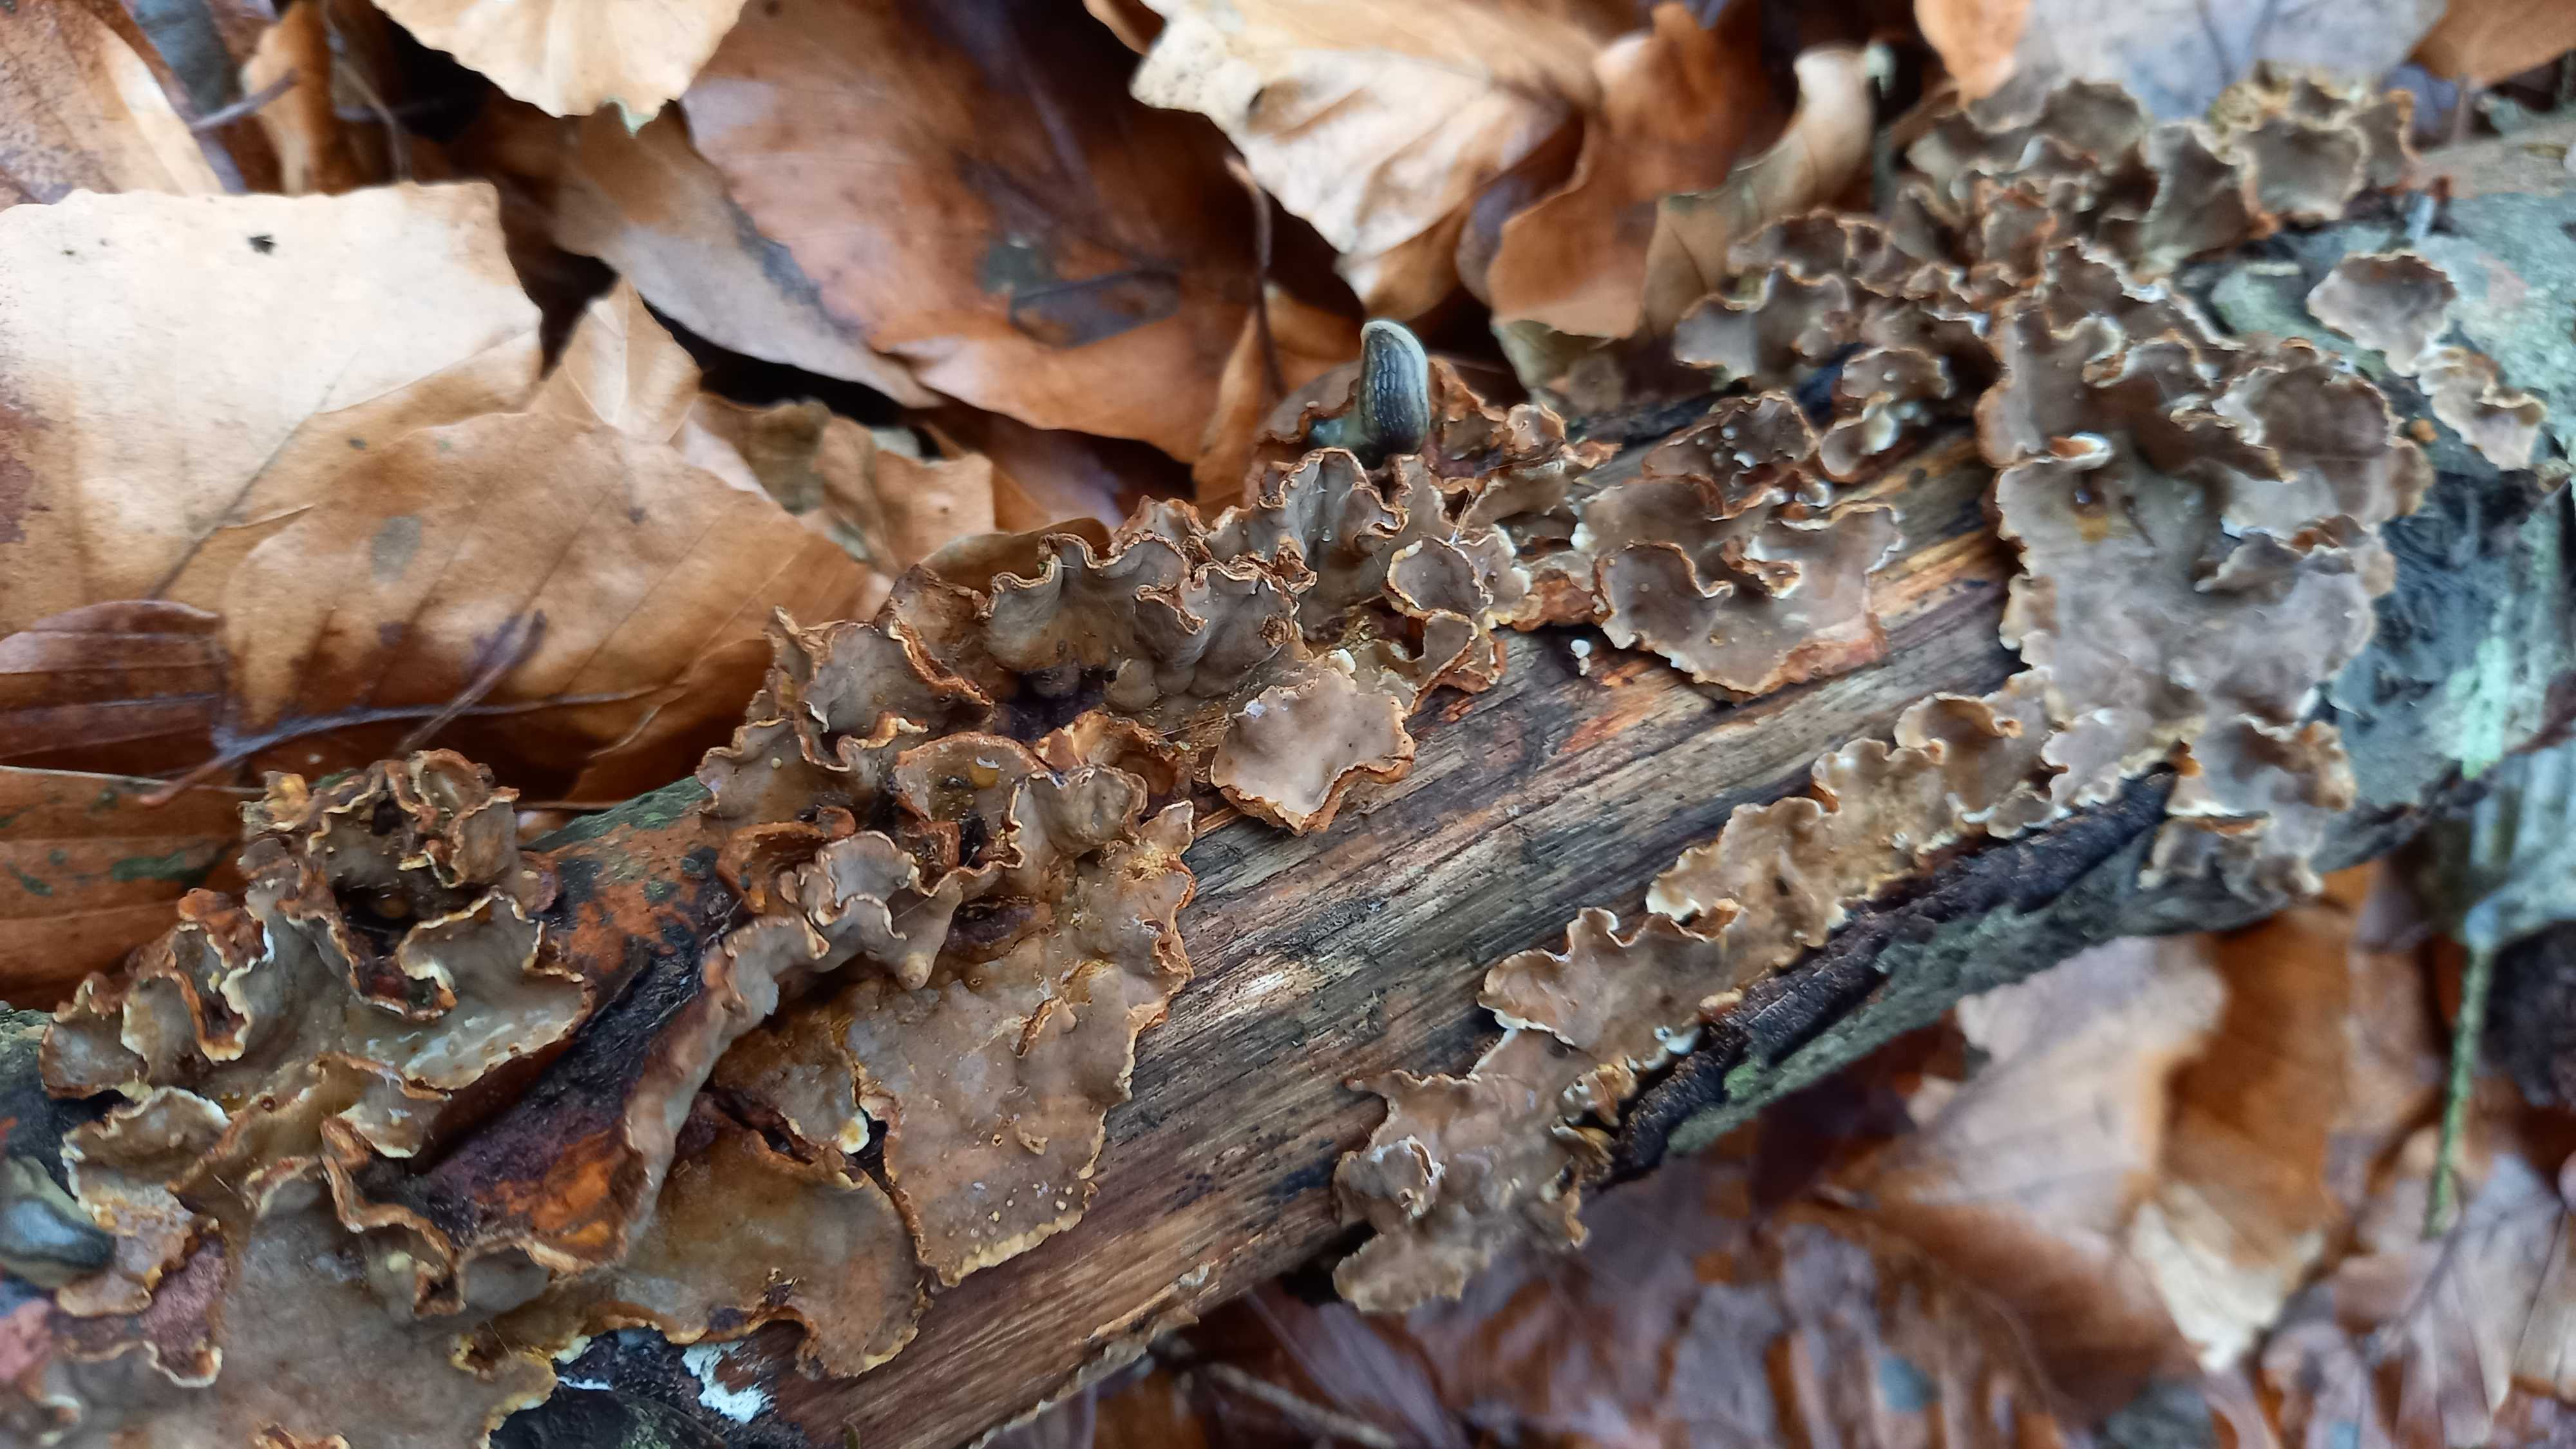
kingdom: Fungi
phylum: Basidiomycota
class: Agaricomycetes
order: Russulales
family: Stereaceae
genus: Stereum
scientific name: Stereum
